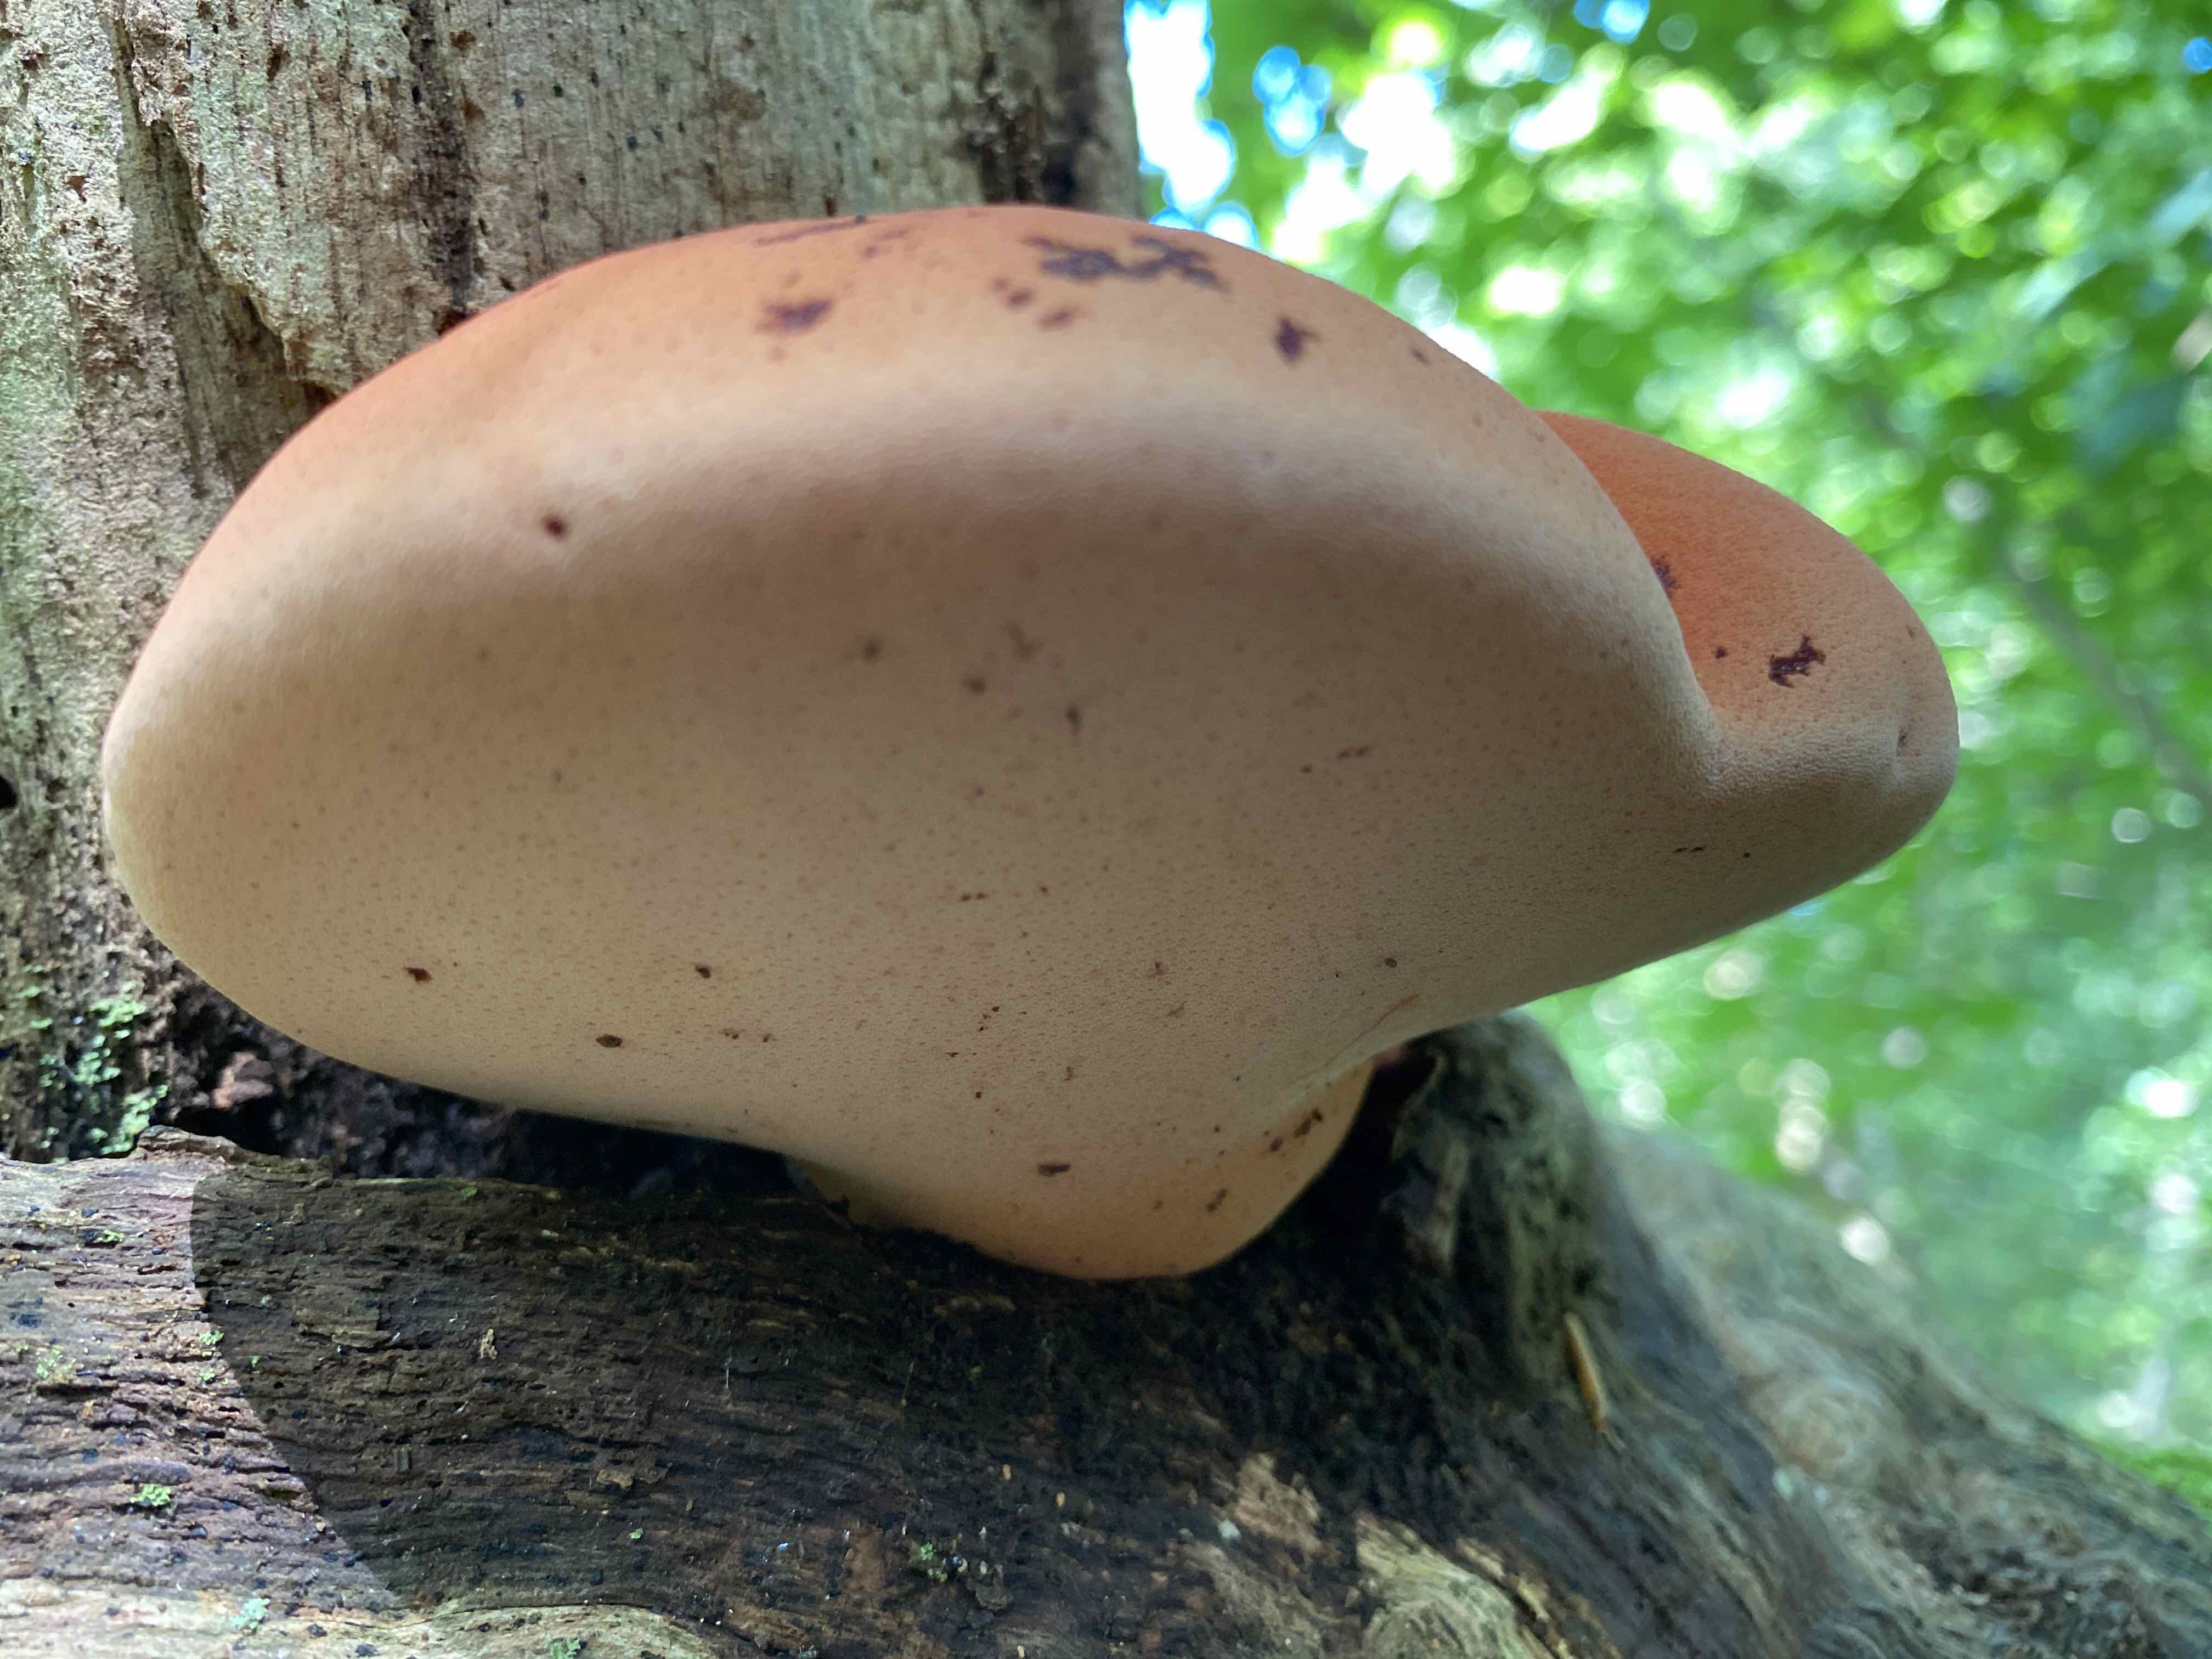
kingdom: Fungi
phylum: Basidiomycota
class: Agaricomycetes
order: Agaricales
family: Fistulinaceae
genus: Fistulina
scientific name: Fistulina hepatica
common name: oksetunge
